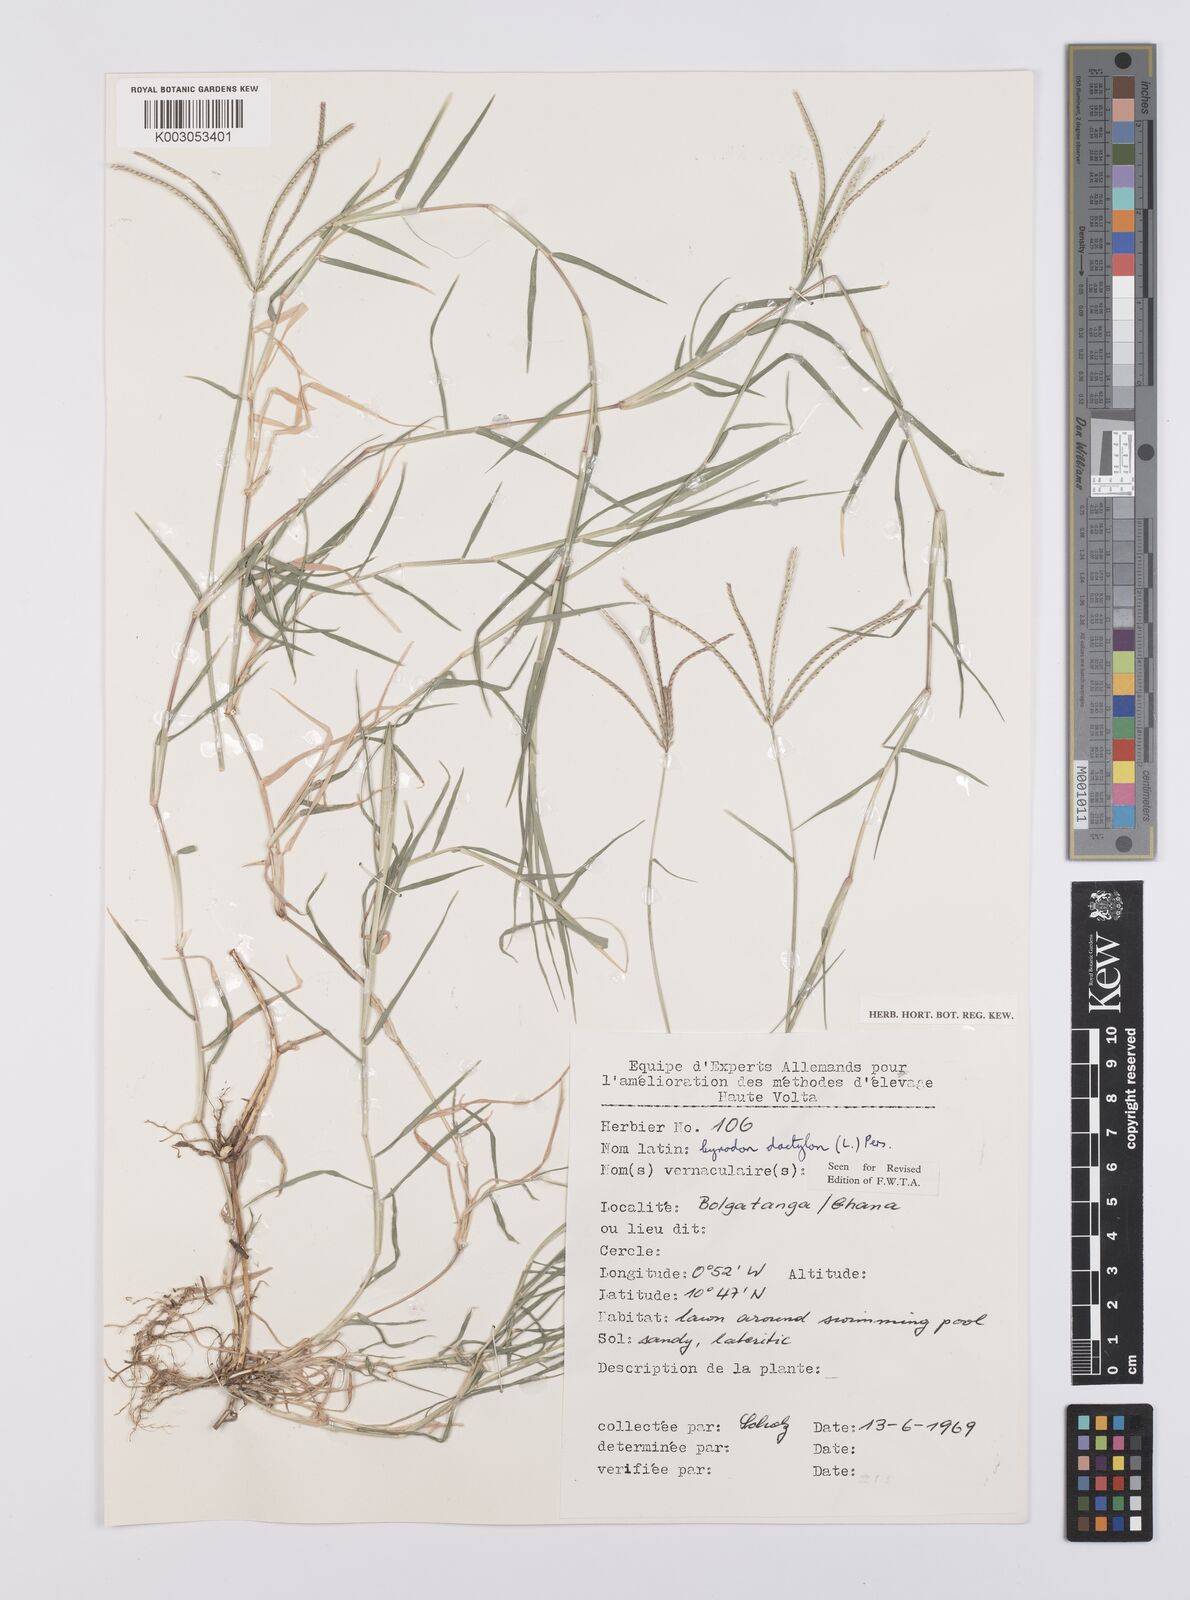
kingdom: Plantae
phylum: Tracheophyta
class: Liliopsida
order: Poales
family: Poaceae
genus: Cynodon
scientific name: Cynodon dactylon
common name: Bermuda grass
